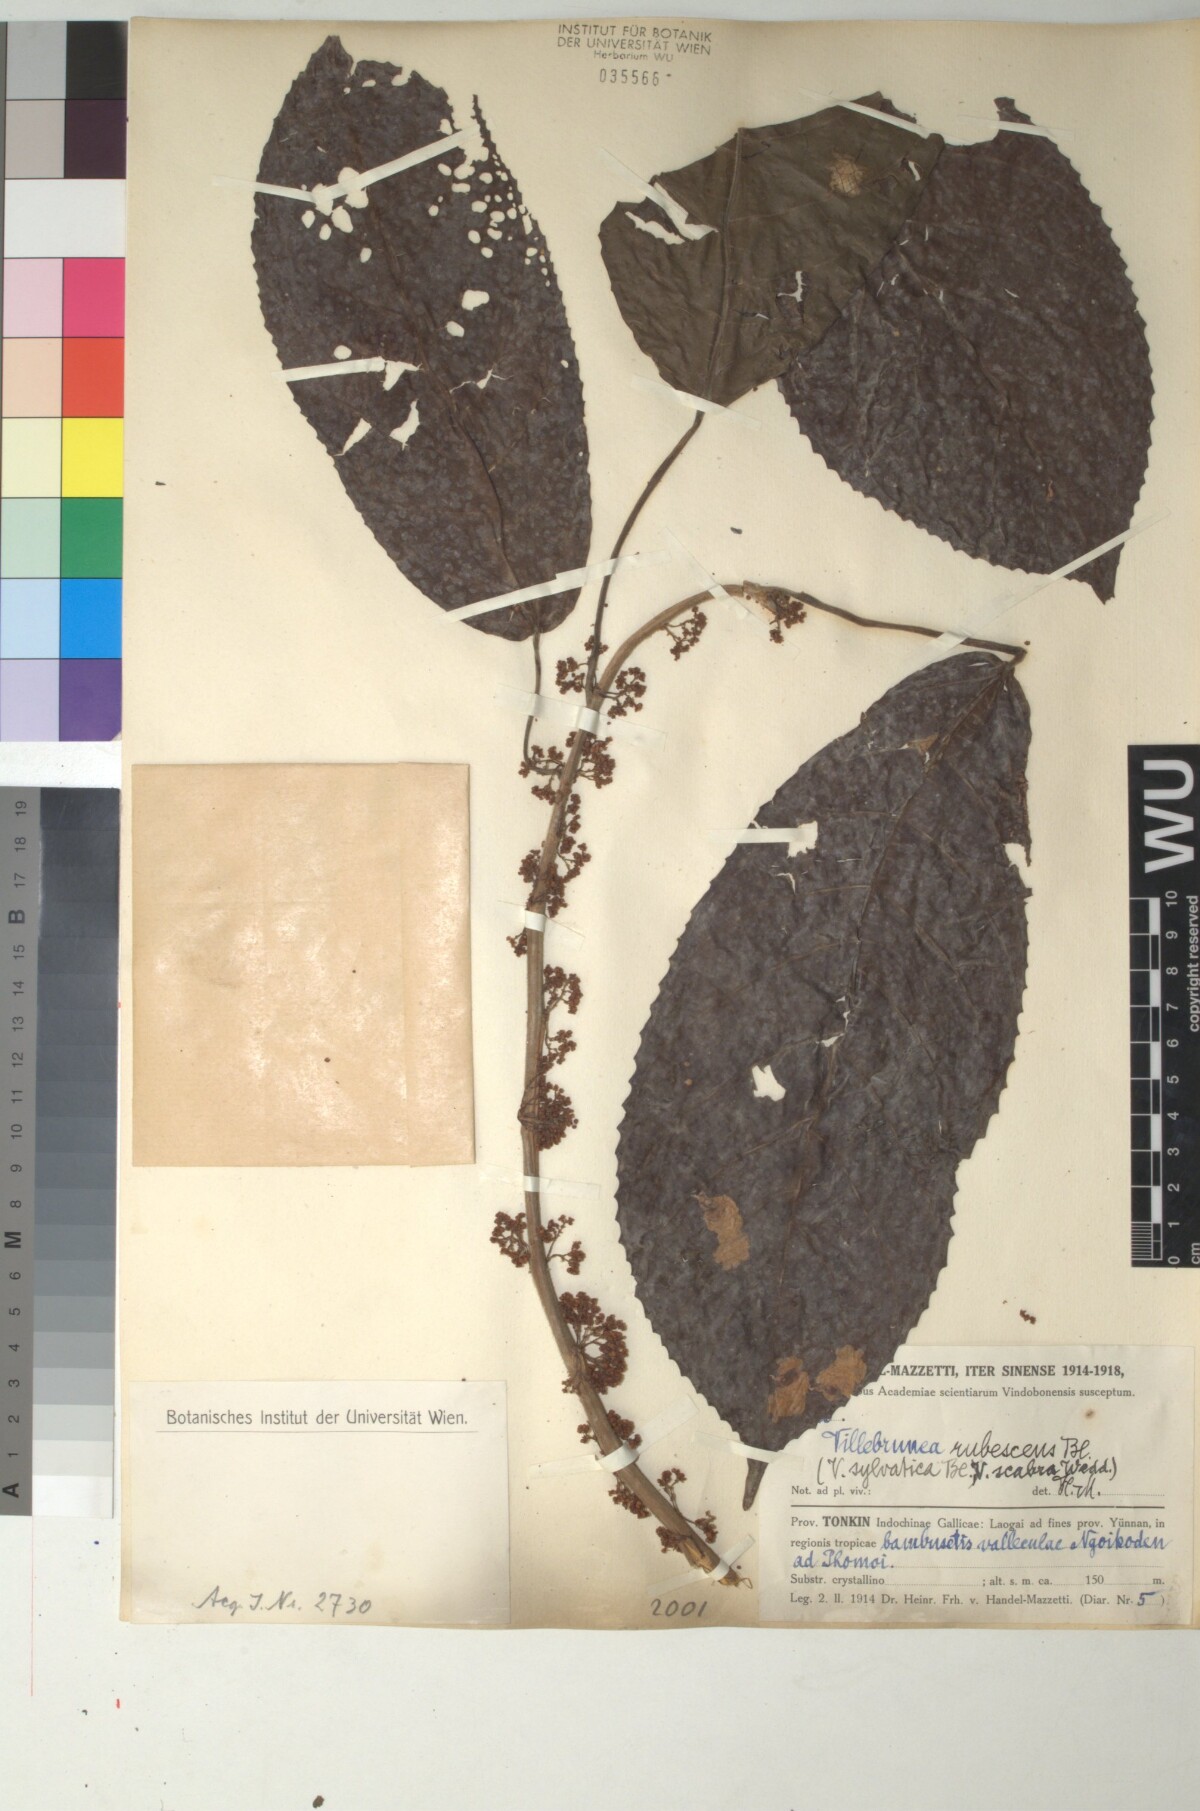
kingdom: Plantae
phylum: Tracheophyta
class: Magnoliopsida
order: Rosales
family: Urticaceae
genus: Oreocnide
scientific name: Oreocnide rubescens
